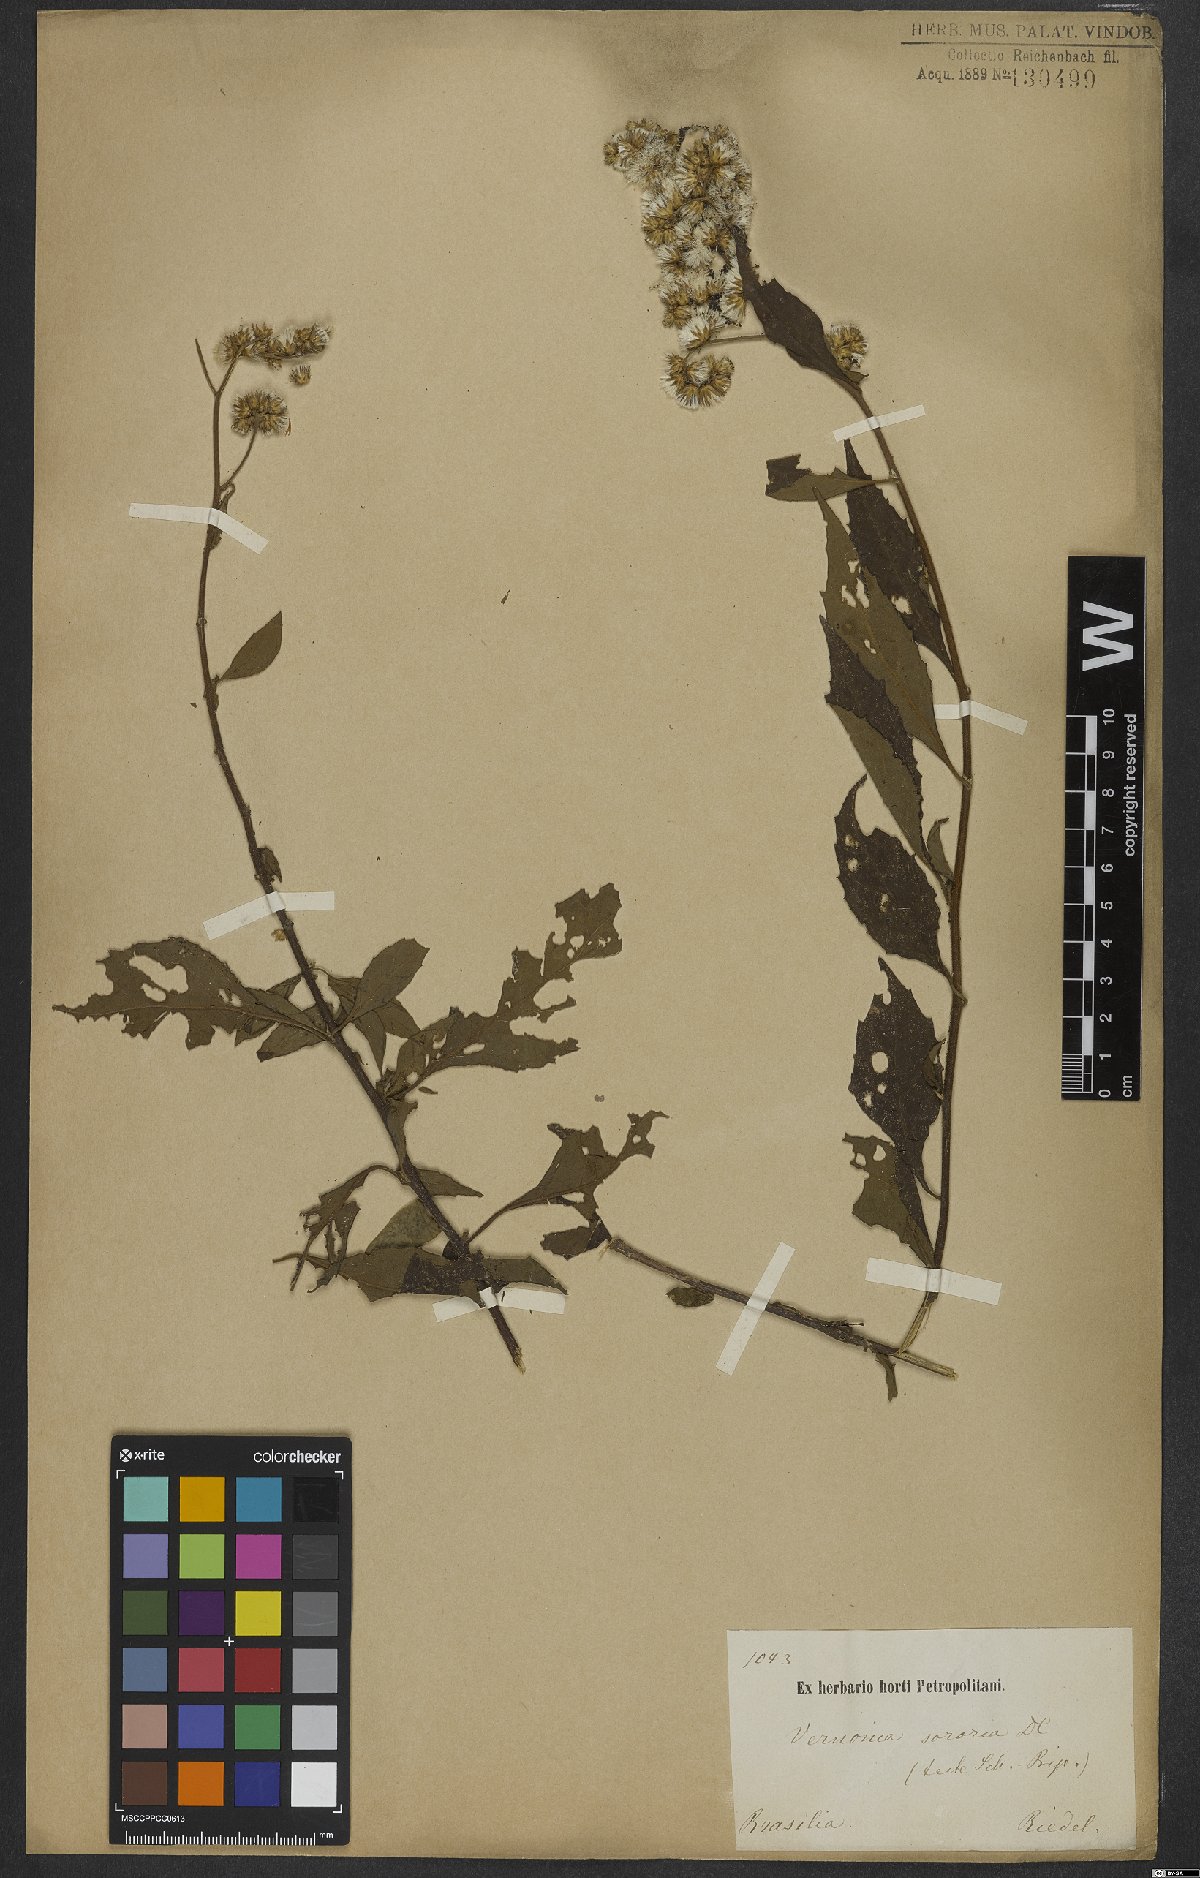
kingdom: Plantae
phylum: Tracheophyta
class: Magnoliopsida
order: Asterales
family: Asteraceae
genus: Cyrtocymura
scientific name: Cyrtocymura scorpioides
